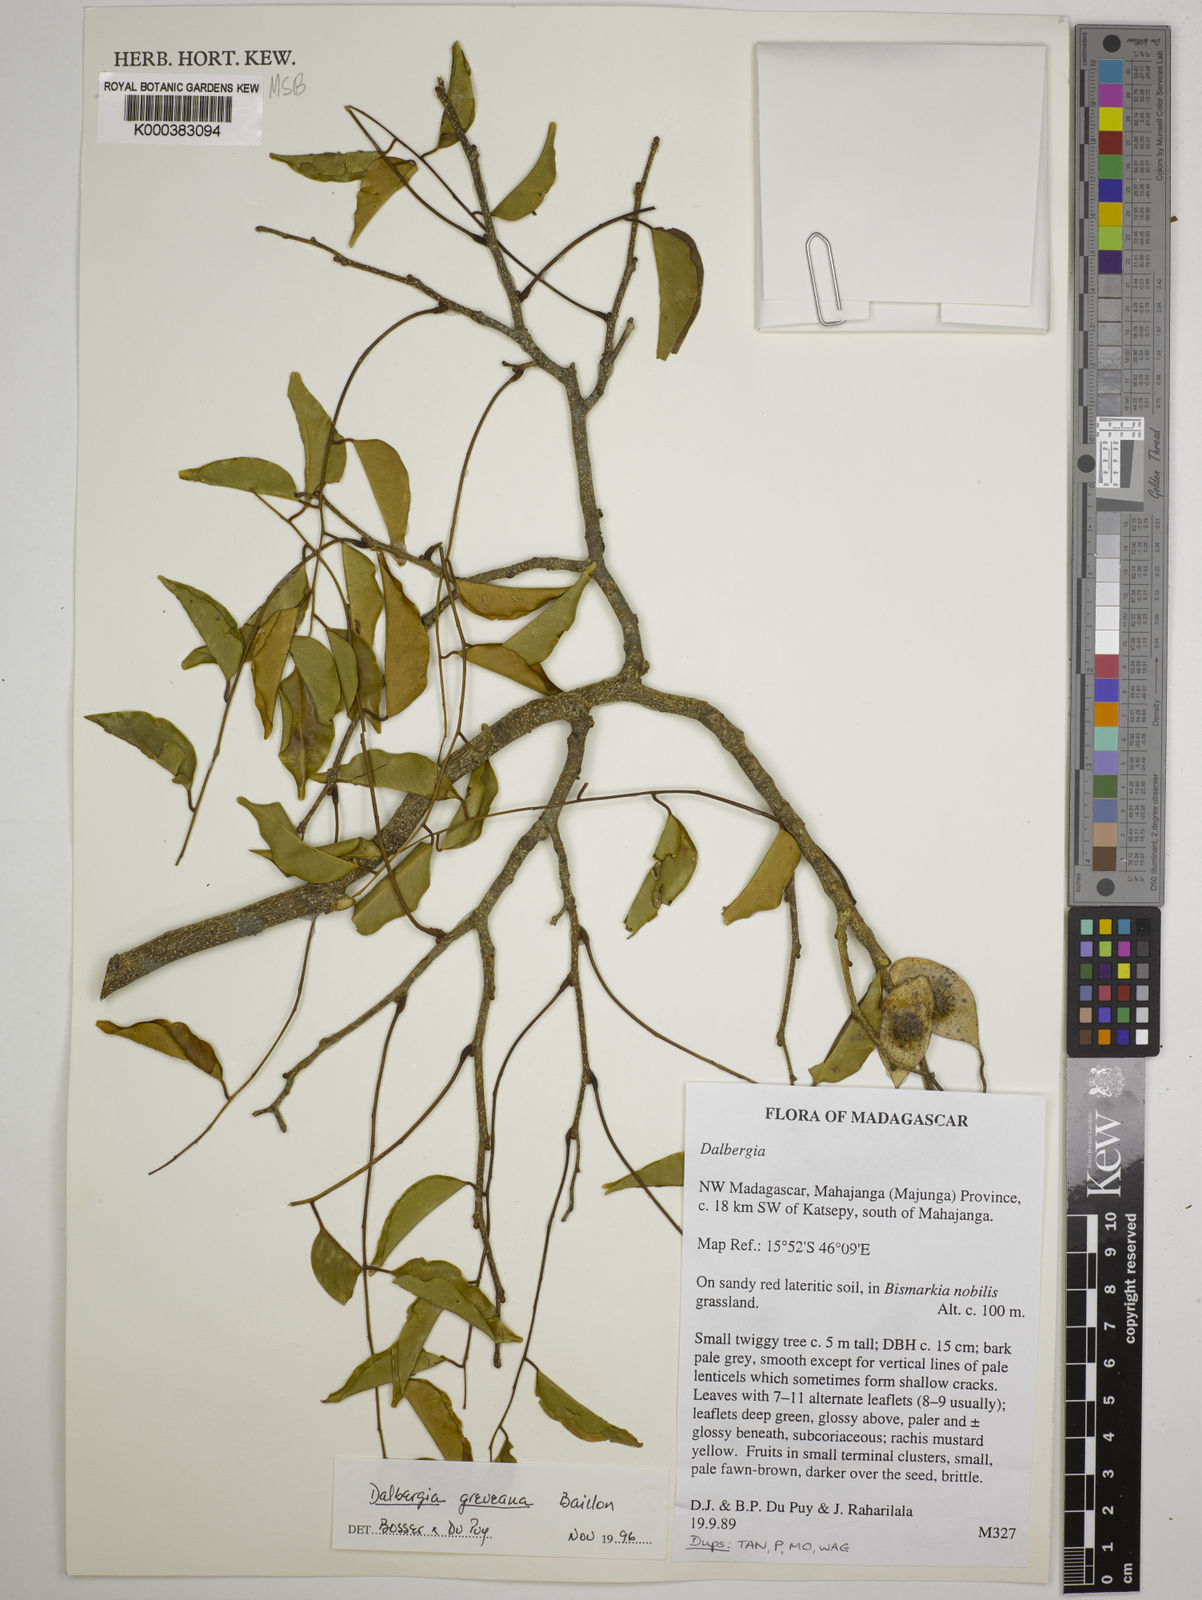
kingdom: Plantae
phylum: Tracheophyta
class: Magnoliopsida
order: Fabales
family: Fabaceae
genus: Dalbergia
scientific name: Dalbergia greveana
